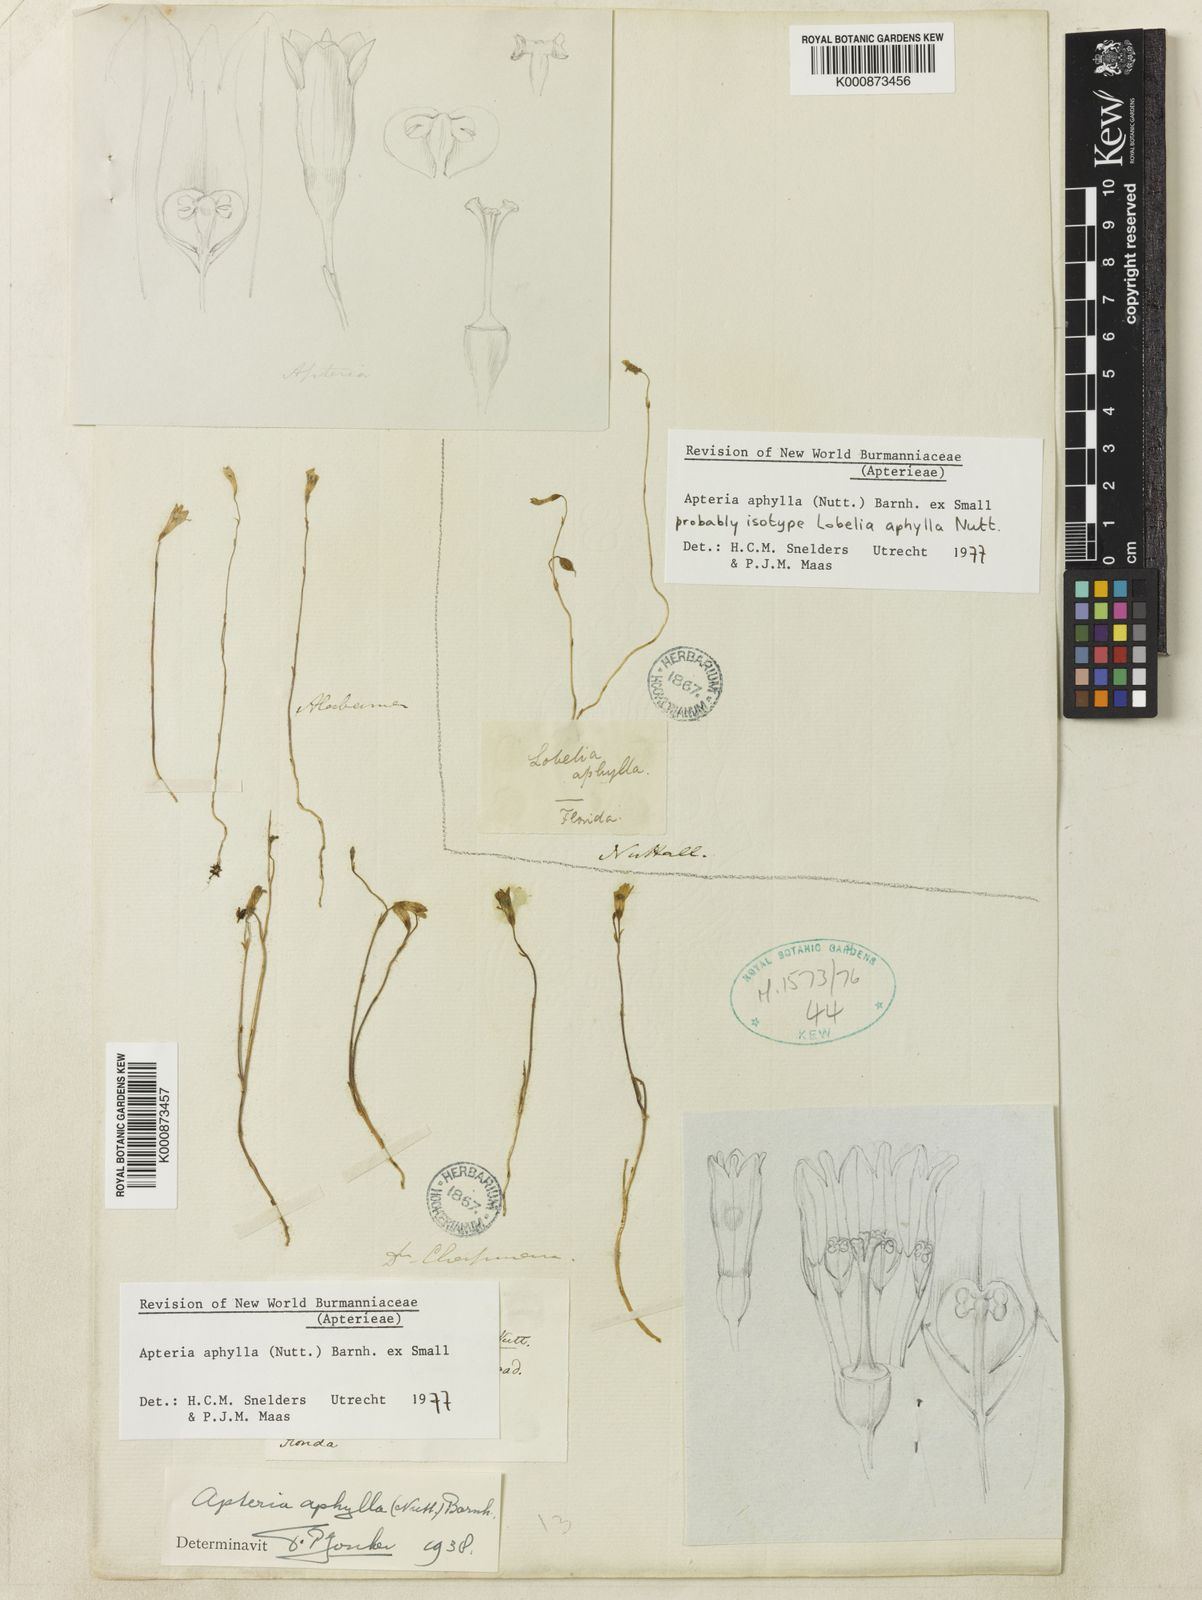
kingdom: Plantae
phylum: Tracheophyta
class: Liliopsida
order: Dioscoreales
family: Burmanniaceae
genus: Apteria
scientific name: Apteria aphylla
